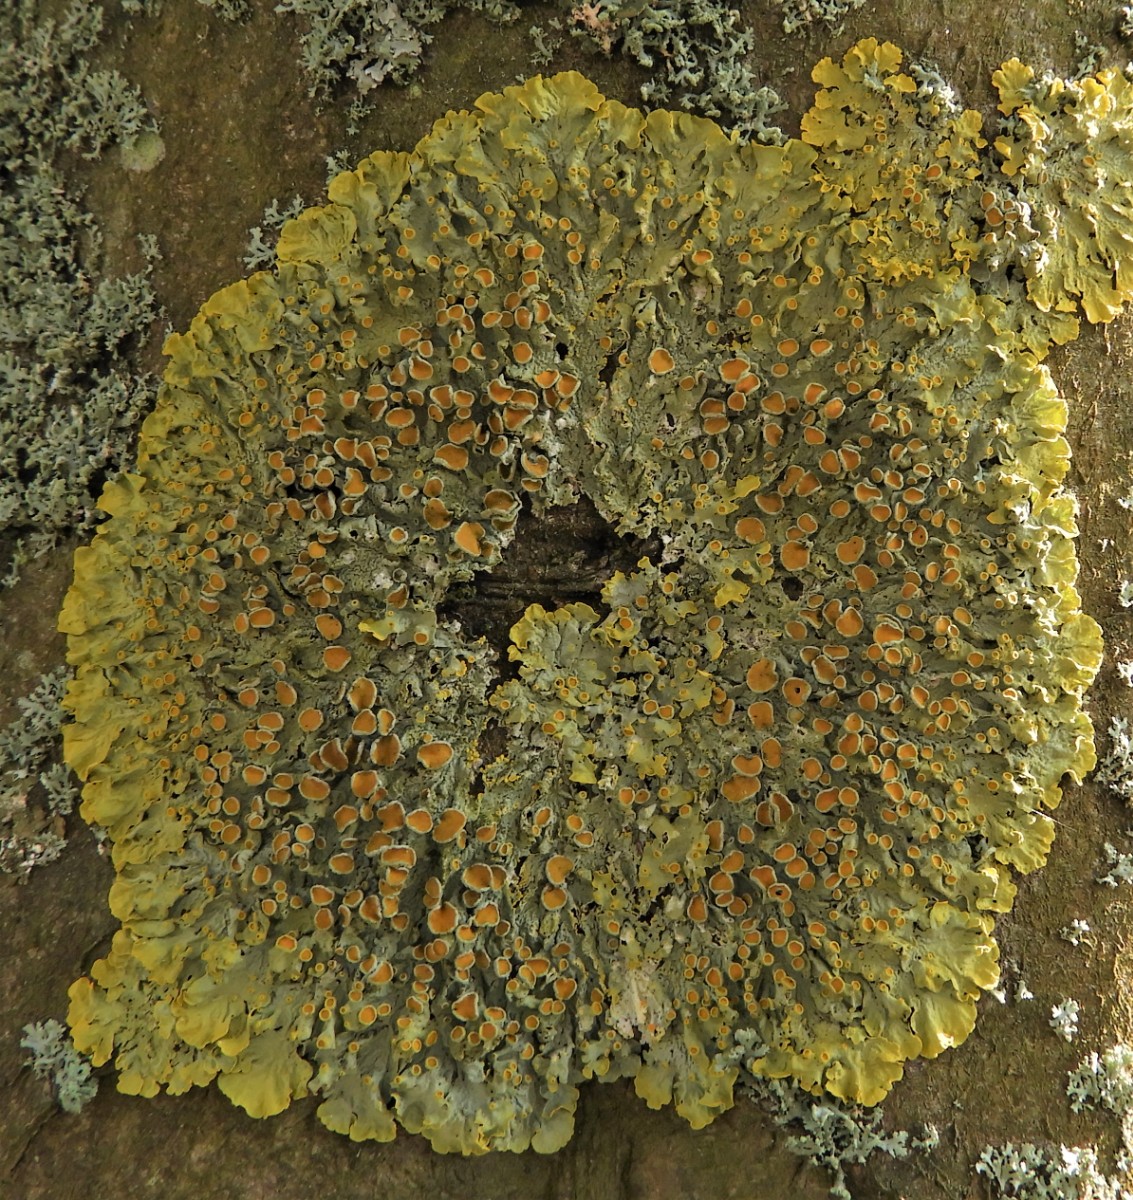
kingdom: Fungi
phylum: Ascomycota
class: Lecanoromycetes
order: Teloschistales
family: Teloschistaceae
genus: Xanthoria
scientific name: Xanthoria parietina
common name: almindelig væggelav
